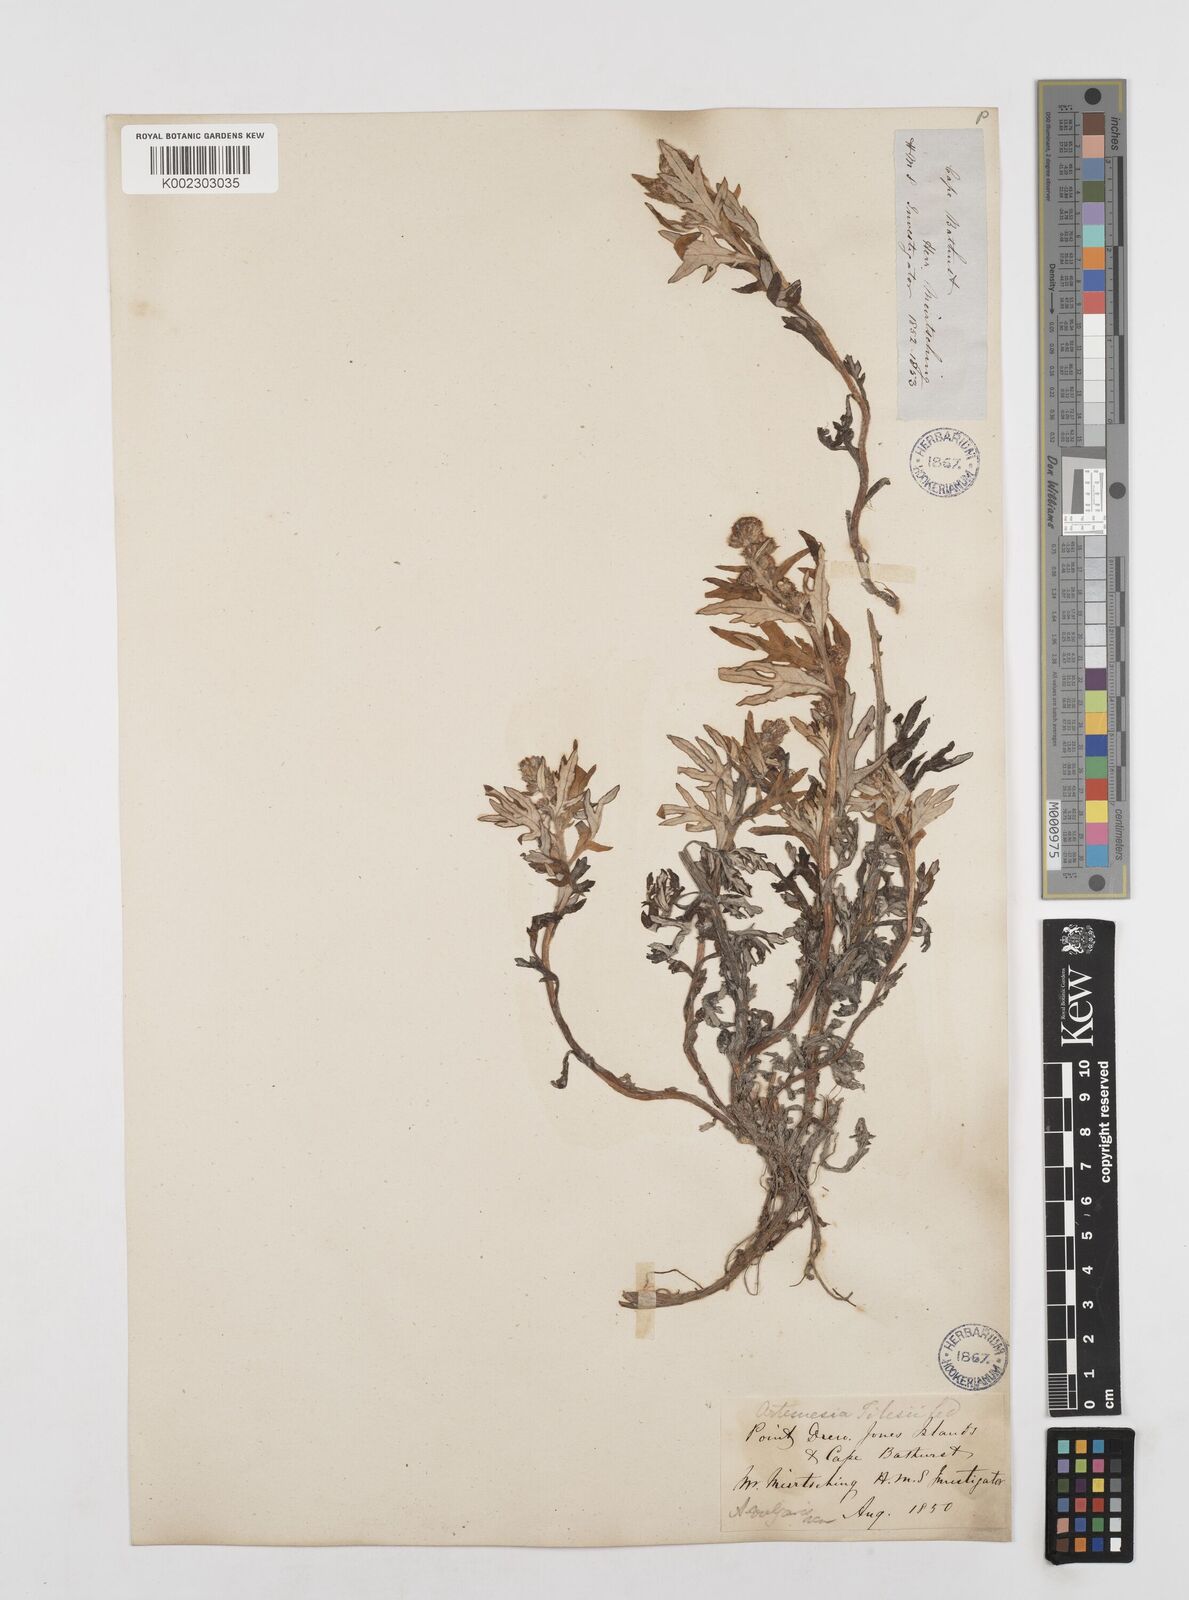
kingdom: Plantae
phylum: Tracheophyta
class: Magnoliopsida
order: Asterales
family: Asteraceae
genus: Artemisia
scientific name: Artemisia tilesii
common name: Aleutian mugwort
